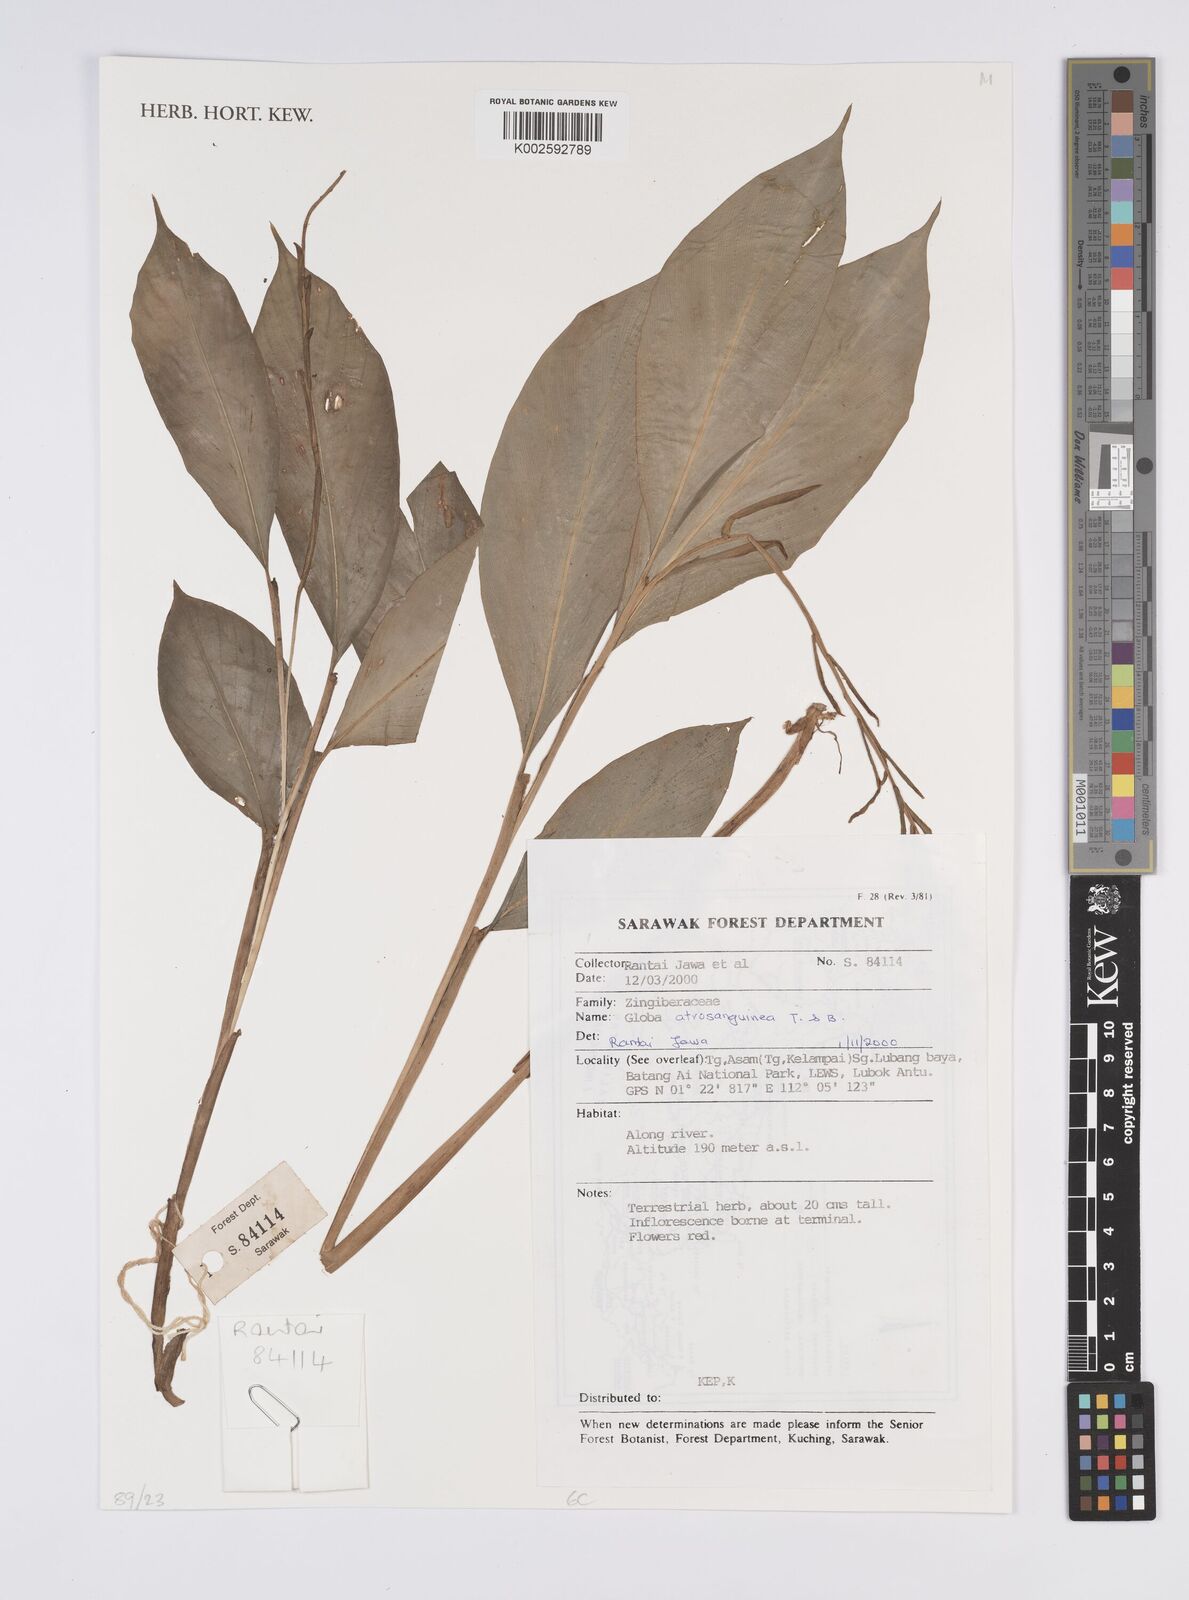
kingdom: Plantae
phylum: Tracheophyta
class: Liliopsida
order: Zingiberales
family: Zingiberaceae
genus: Globba
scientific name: Globba atrosanguinea
